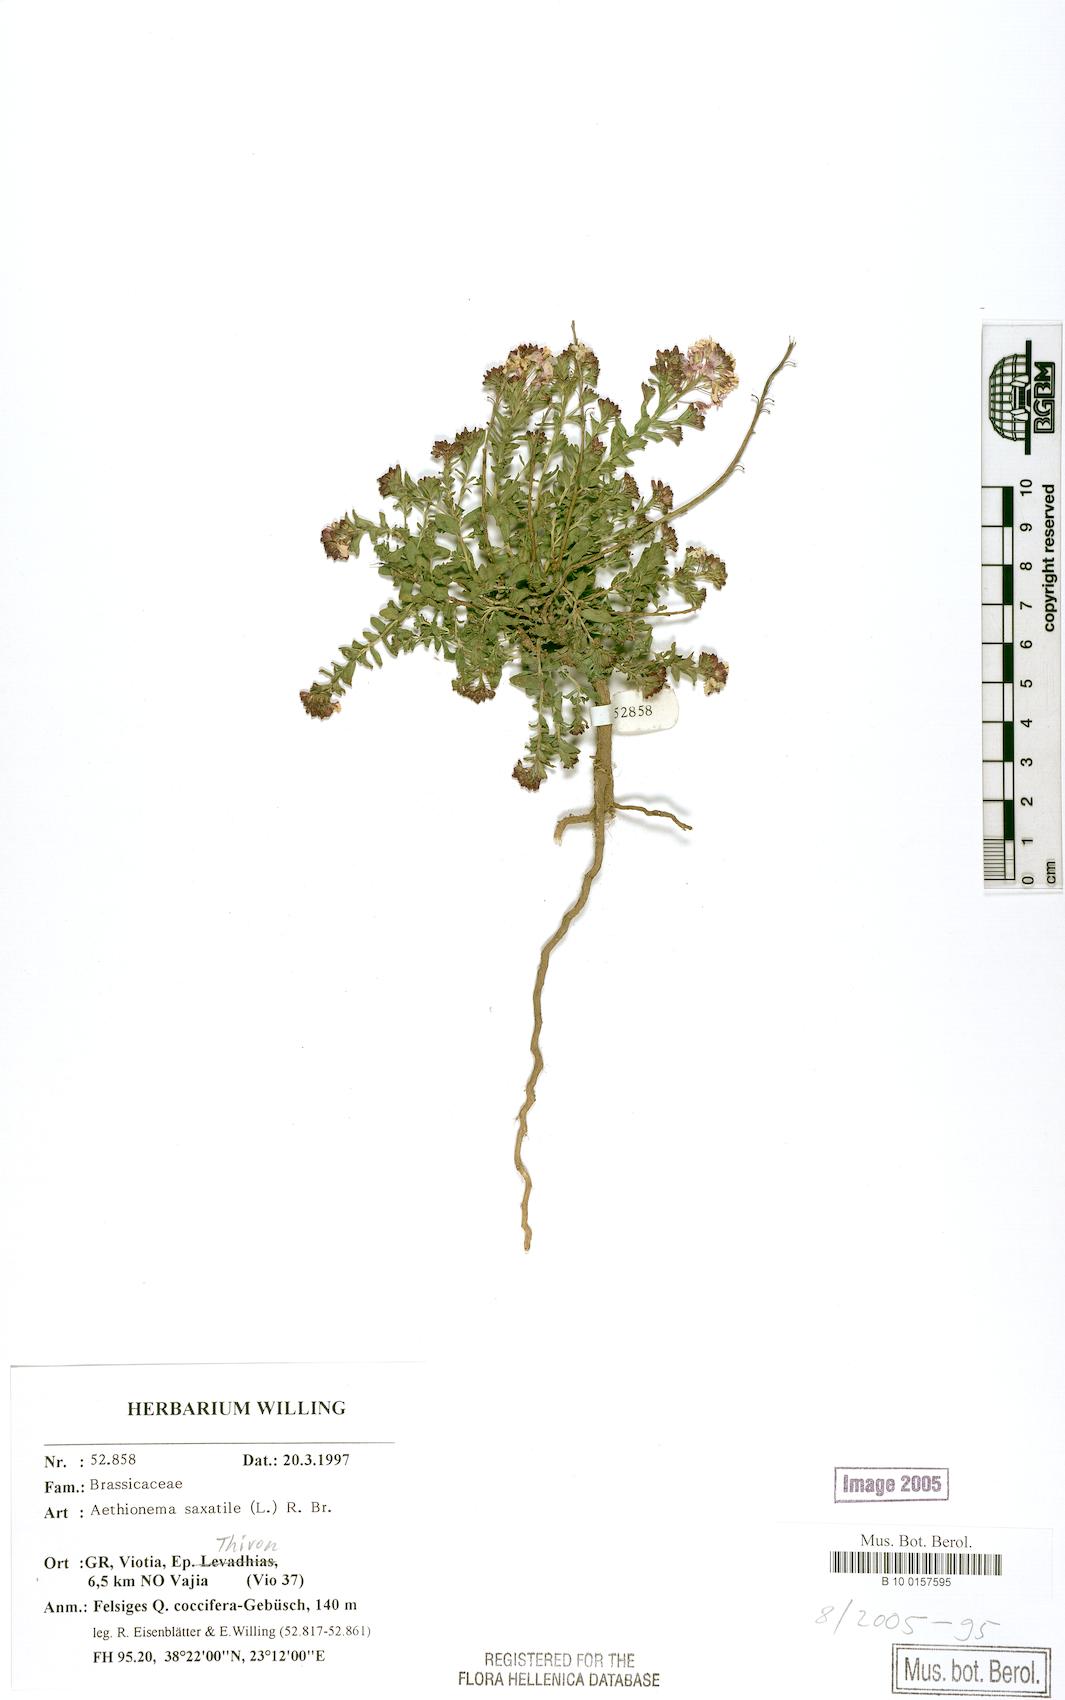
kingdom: Plantae
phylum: Tracheophyta
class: Magnoliopsida
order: Brassicales
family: Brassicaceae
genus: Aethionema
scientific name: Aethionema saxatile
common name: Burnt candytuft
